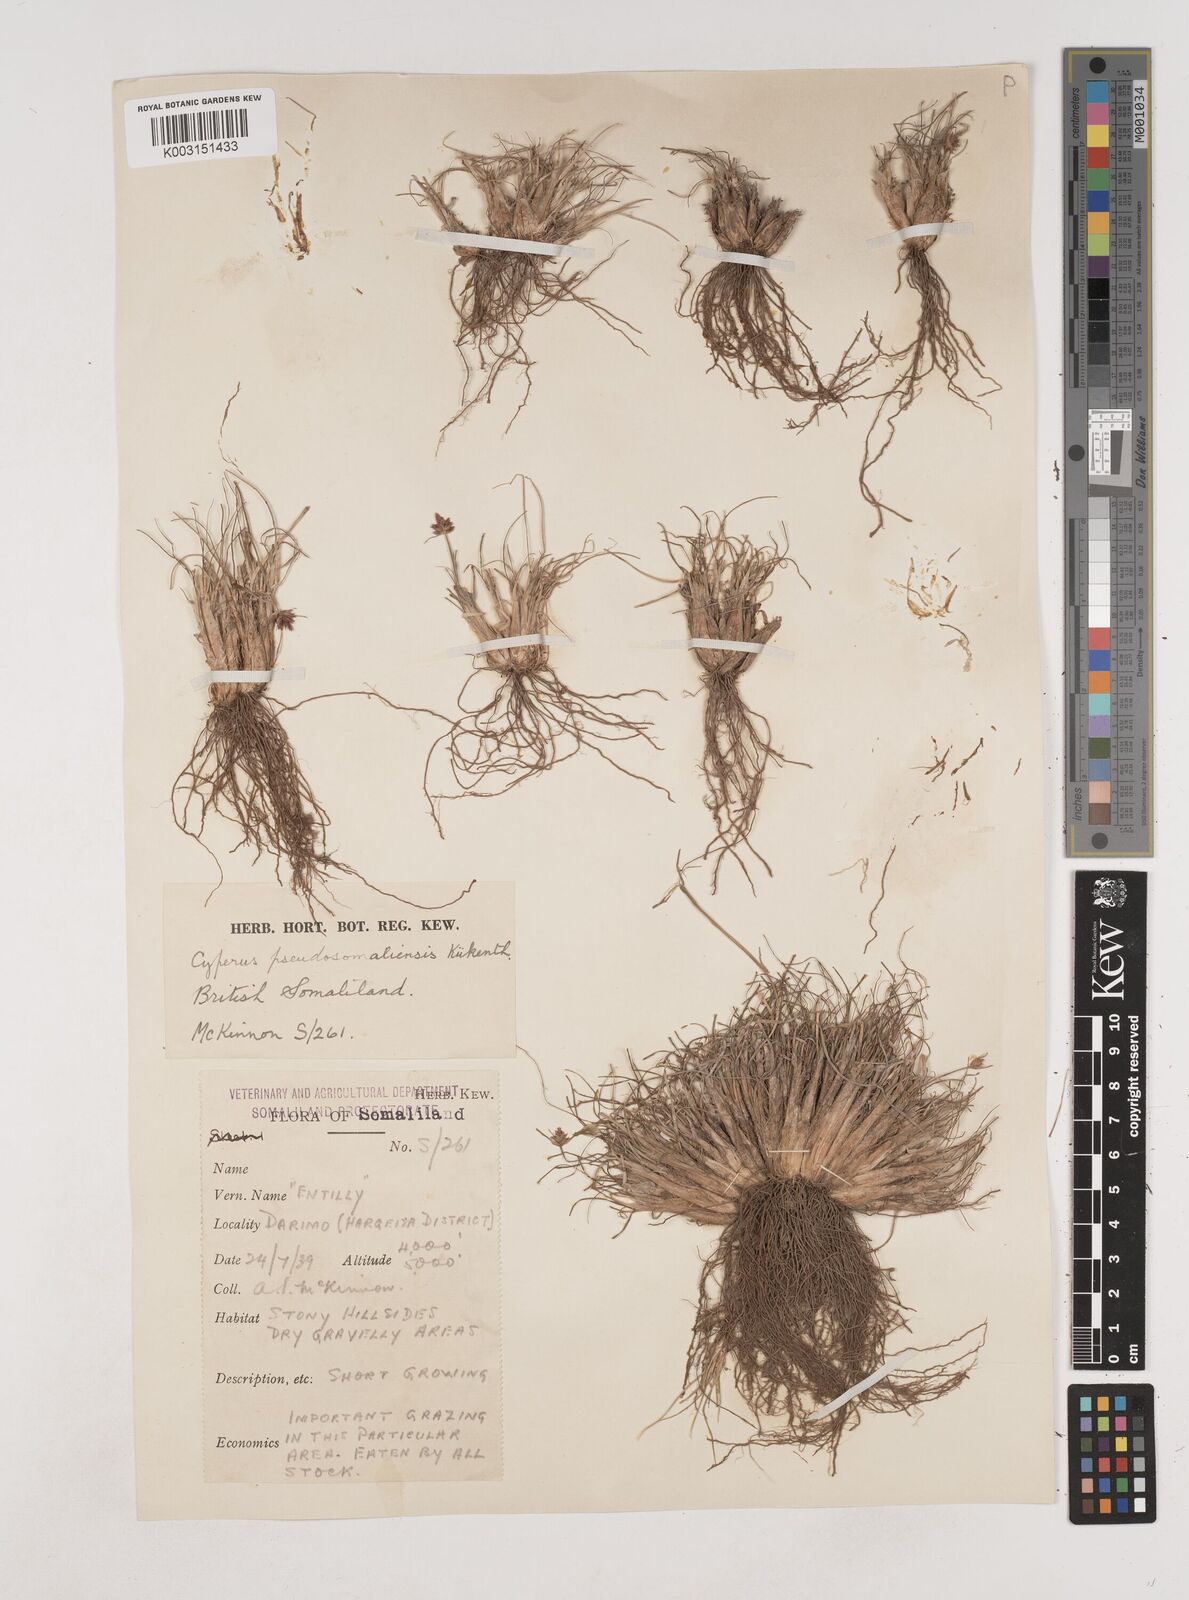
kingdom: Plantae
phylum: Tracheophyta
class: Liliopsida
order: Poales
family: Cyperaceae
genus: Cyperus
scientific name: Cyperus pseudosomaliensis
